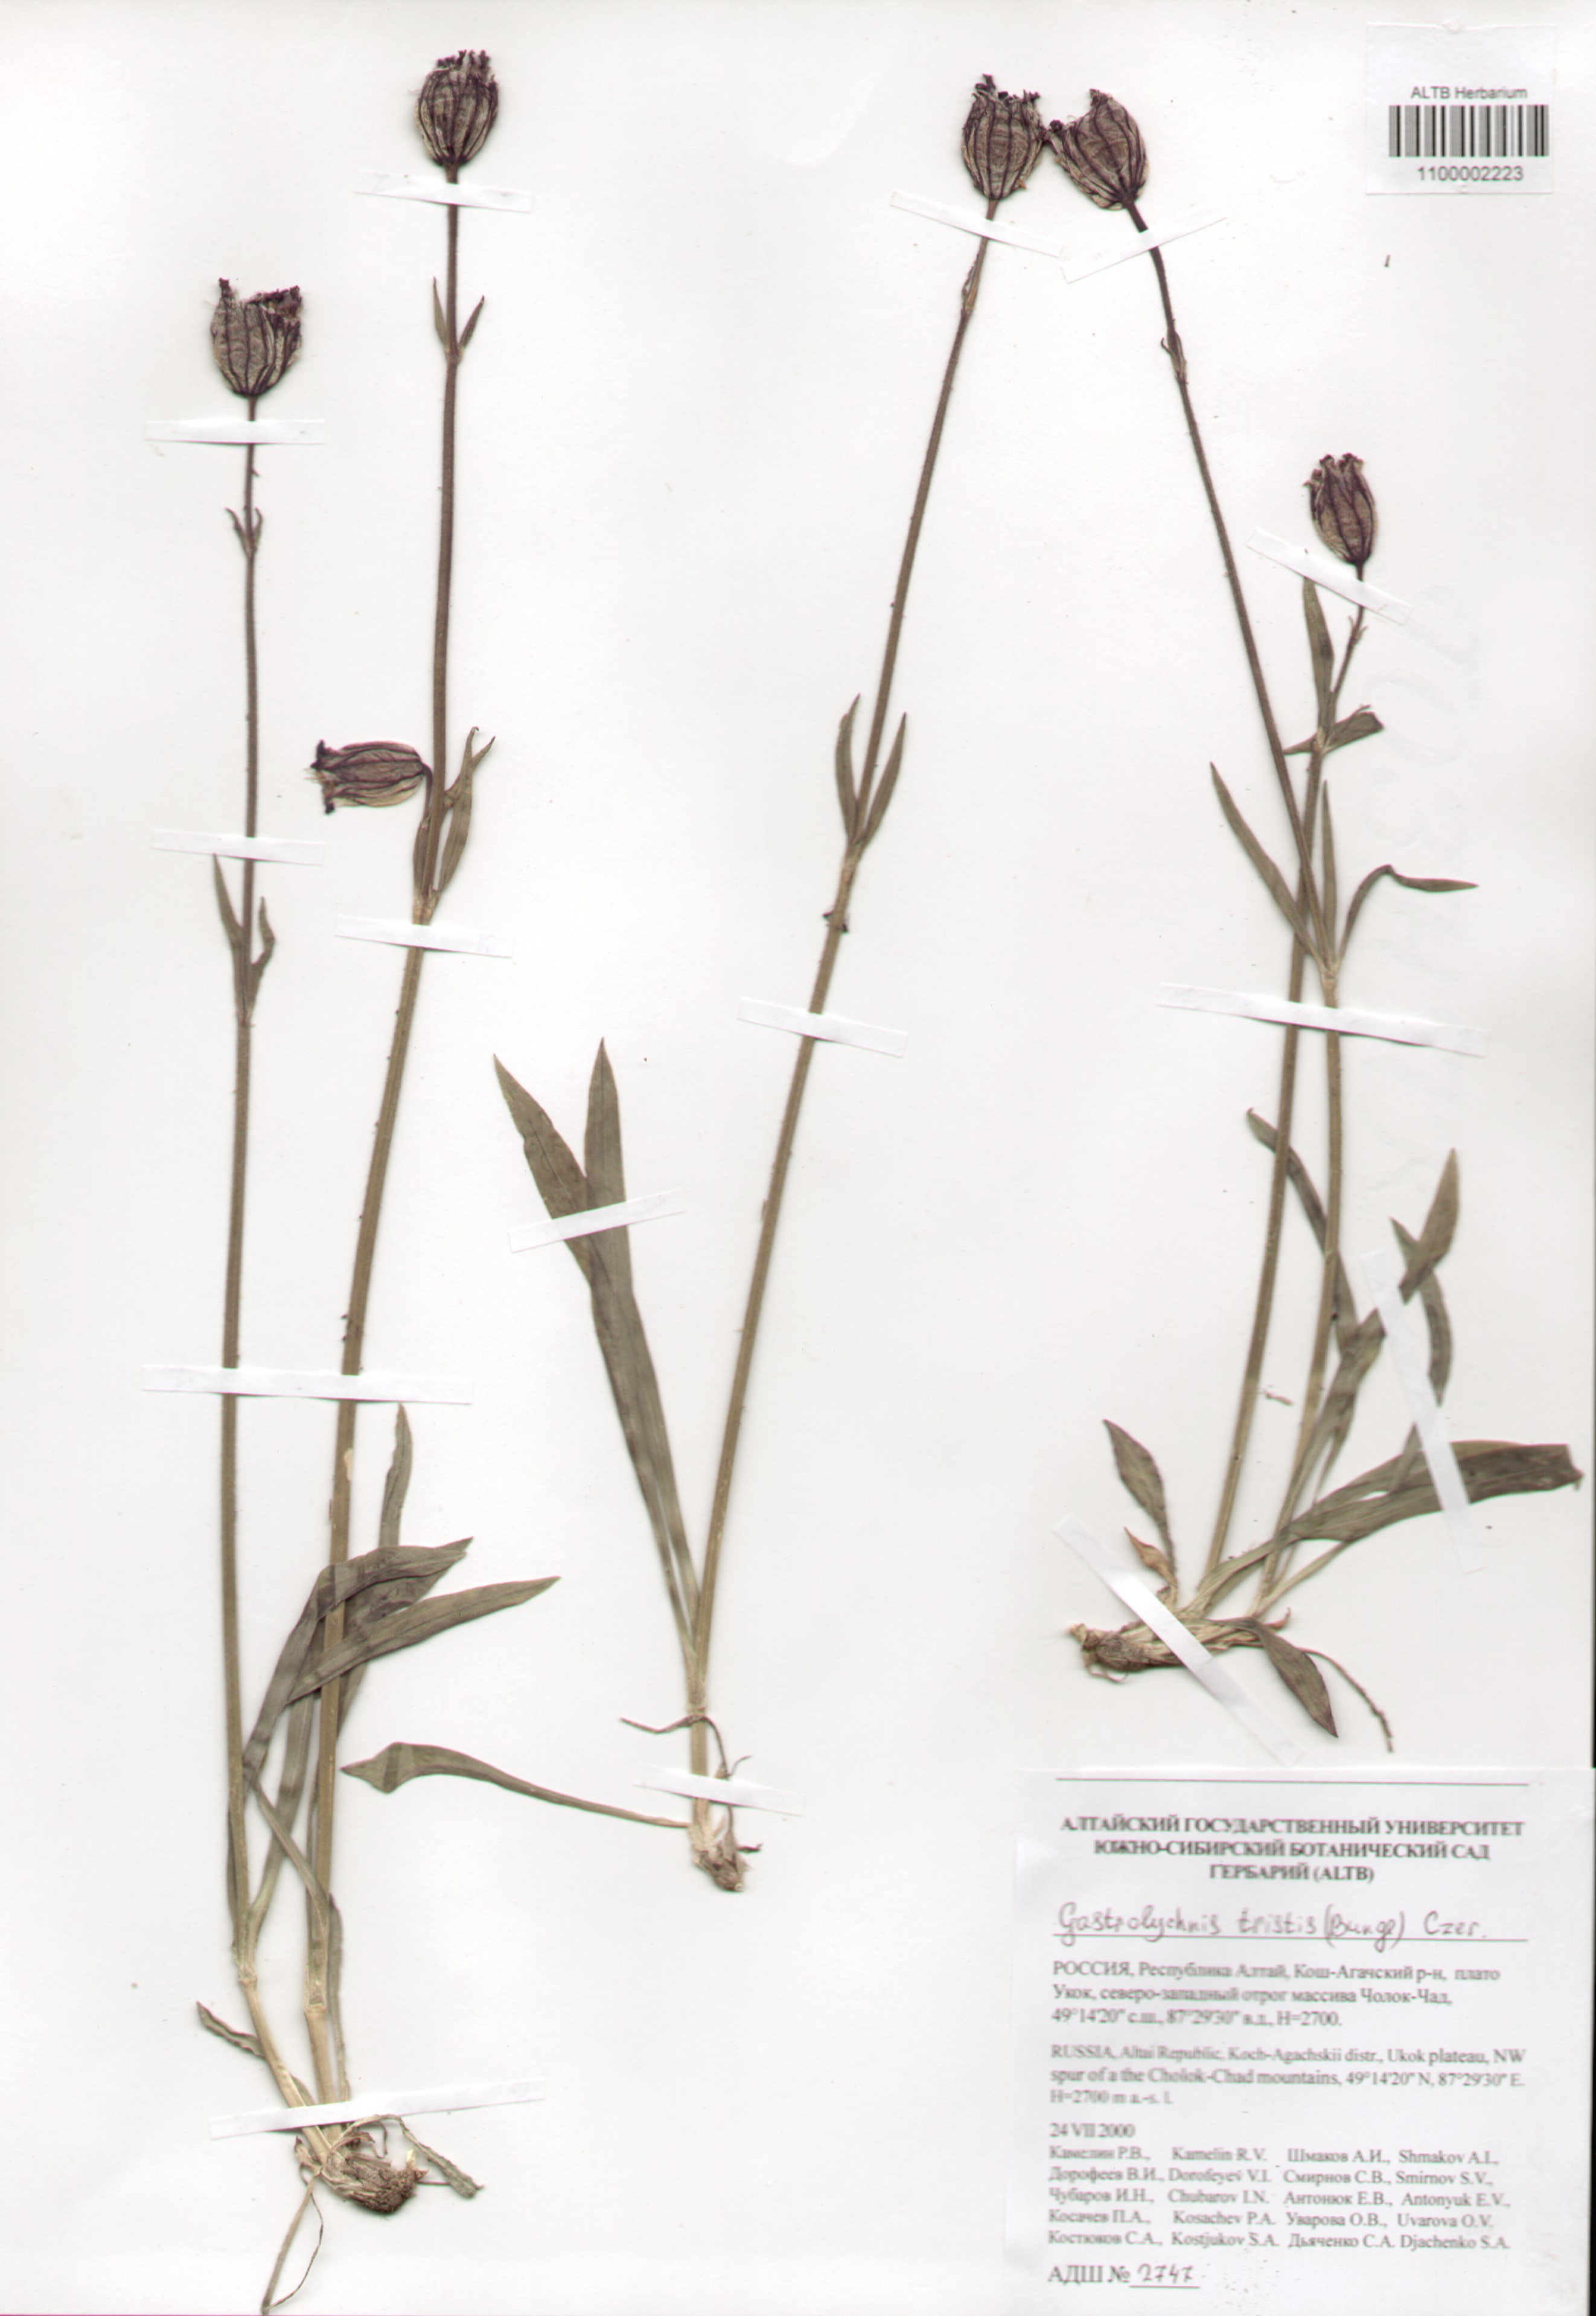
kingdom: Plantae
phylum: Tracheophyta
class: Magnoliopsida
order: Caryophyllales
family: Caryophyllaceae
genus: Silene
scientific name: Silene bungei
